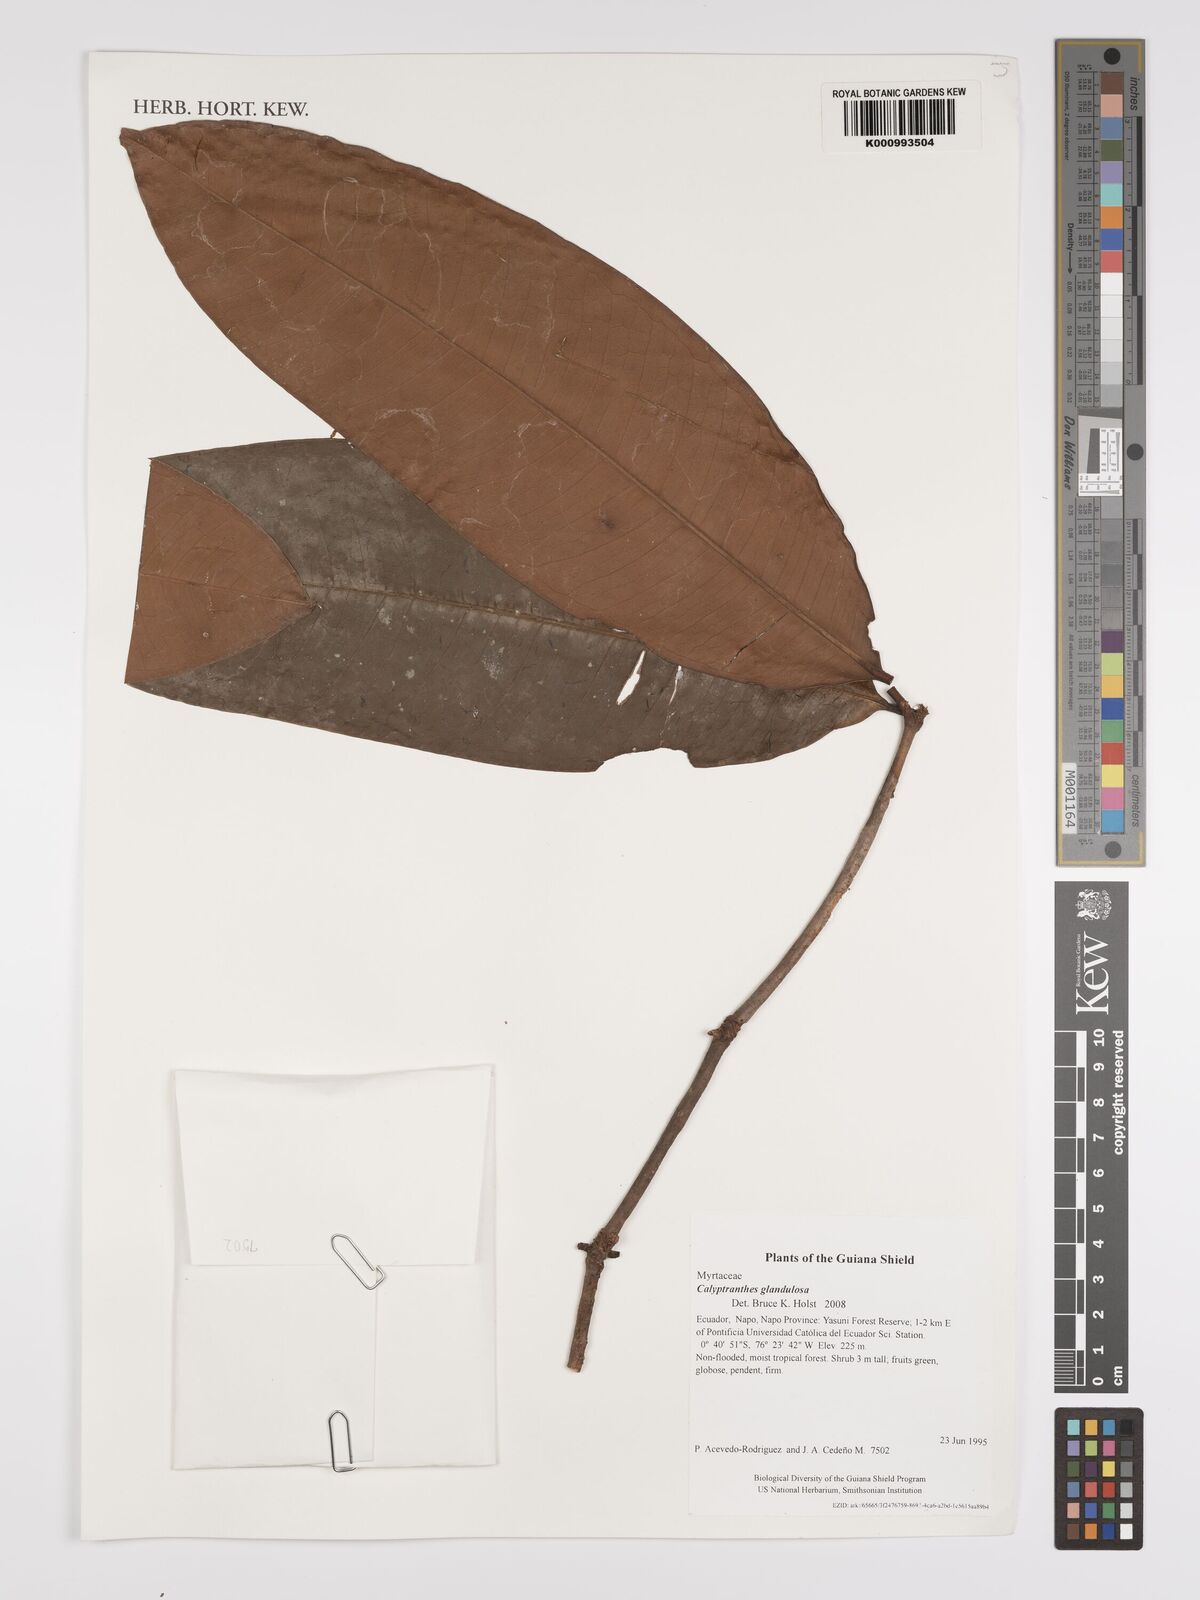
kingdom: Plantae
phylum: Tracheophyta
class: Magnoliopsida
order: Myrtales
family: Myrtaceae
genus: Myrcia
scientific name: Myrcia adenophylla
